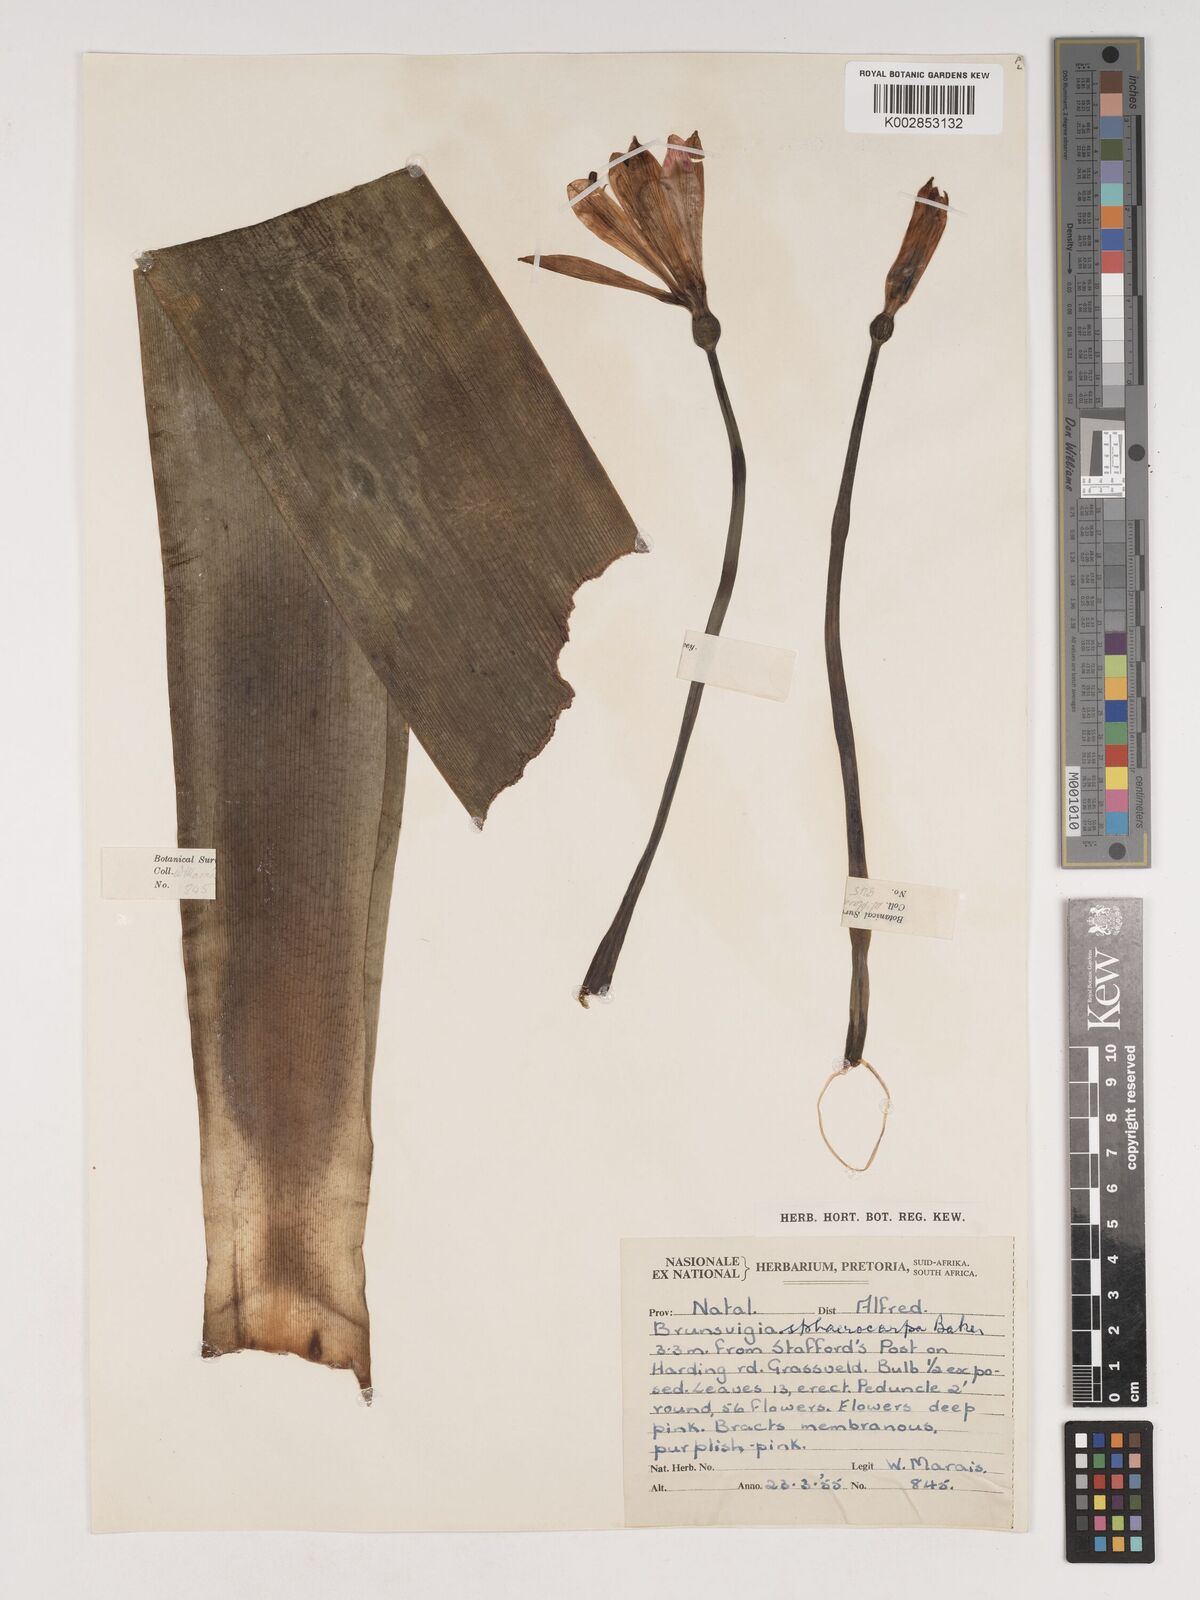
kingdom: Plantae
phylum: Tracheophyta
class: Liliopsida
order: Asparagales
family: Amaryllidaceae
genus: Brunsvigia
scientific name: Brunsvigia grandiflora
